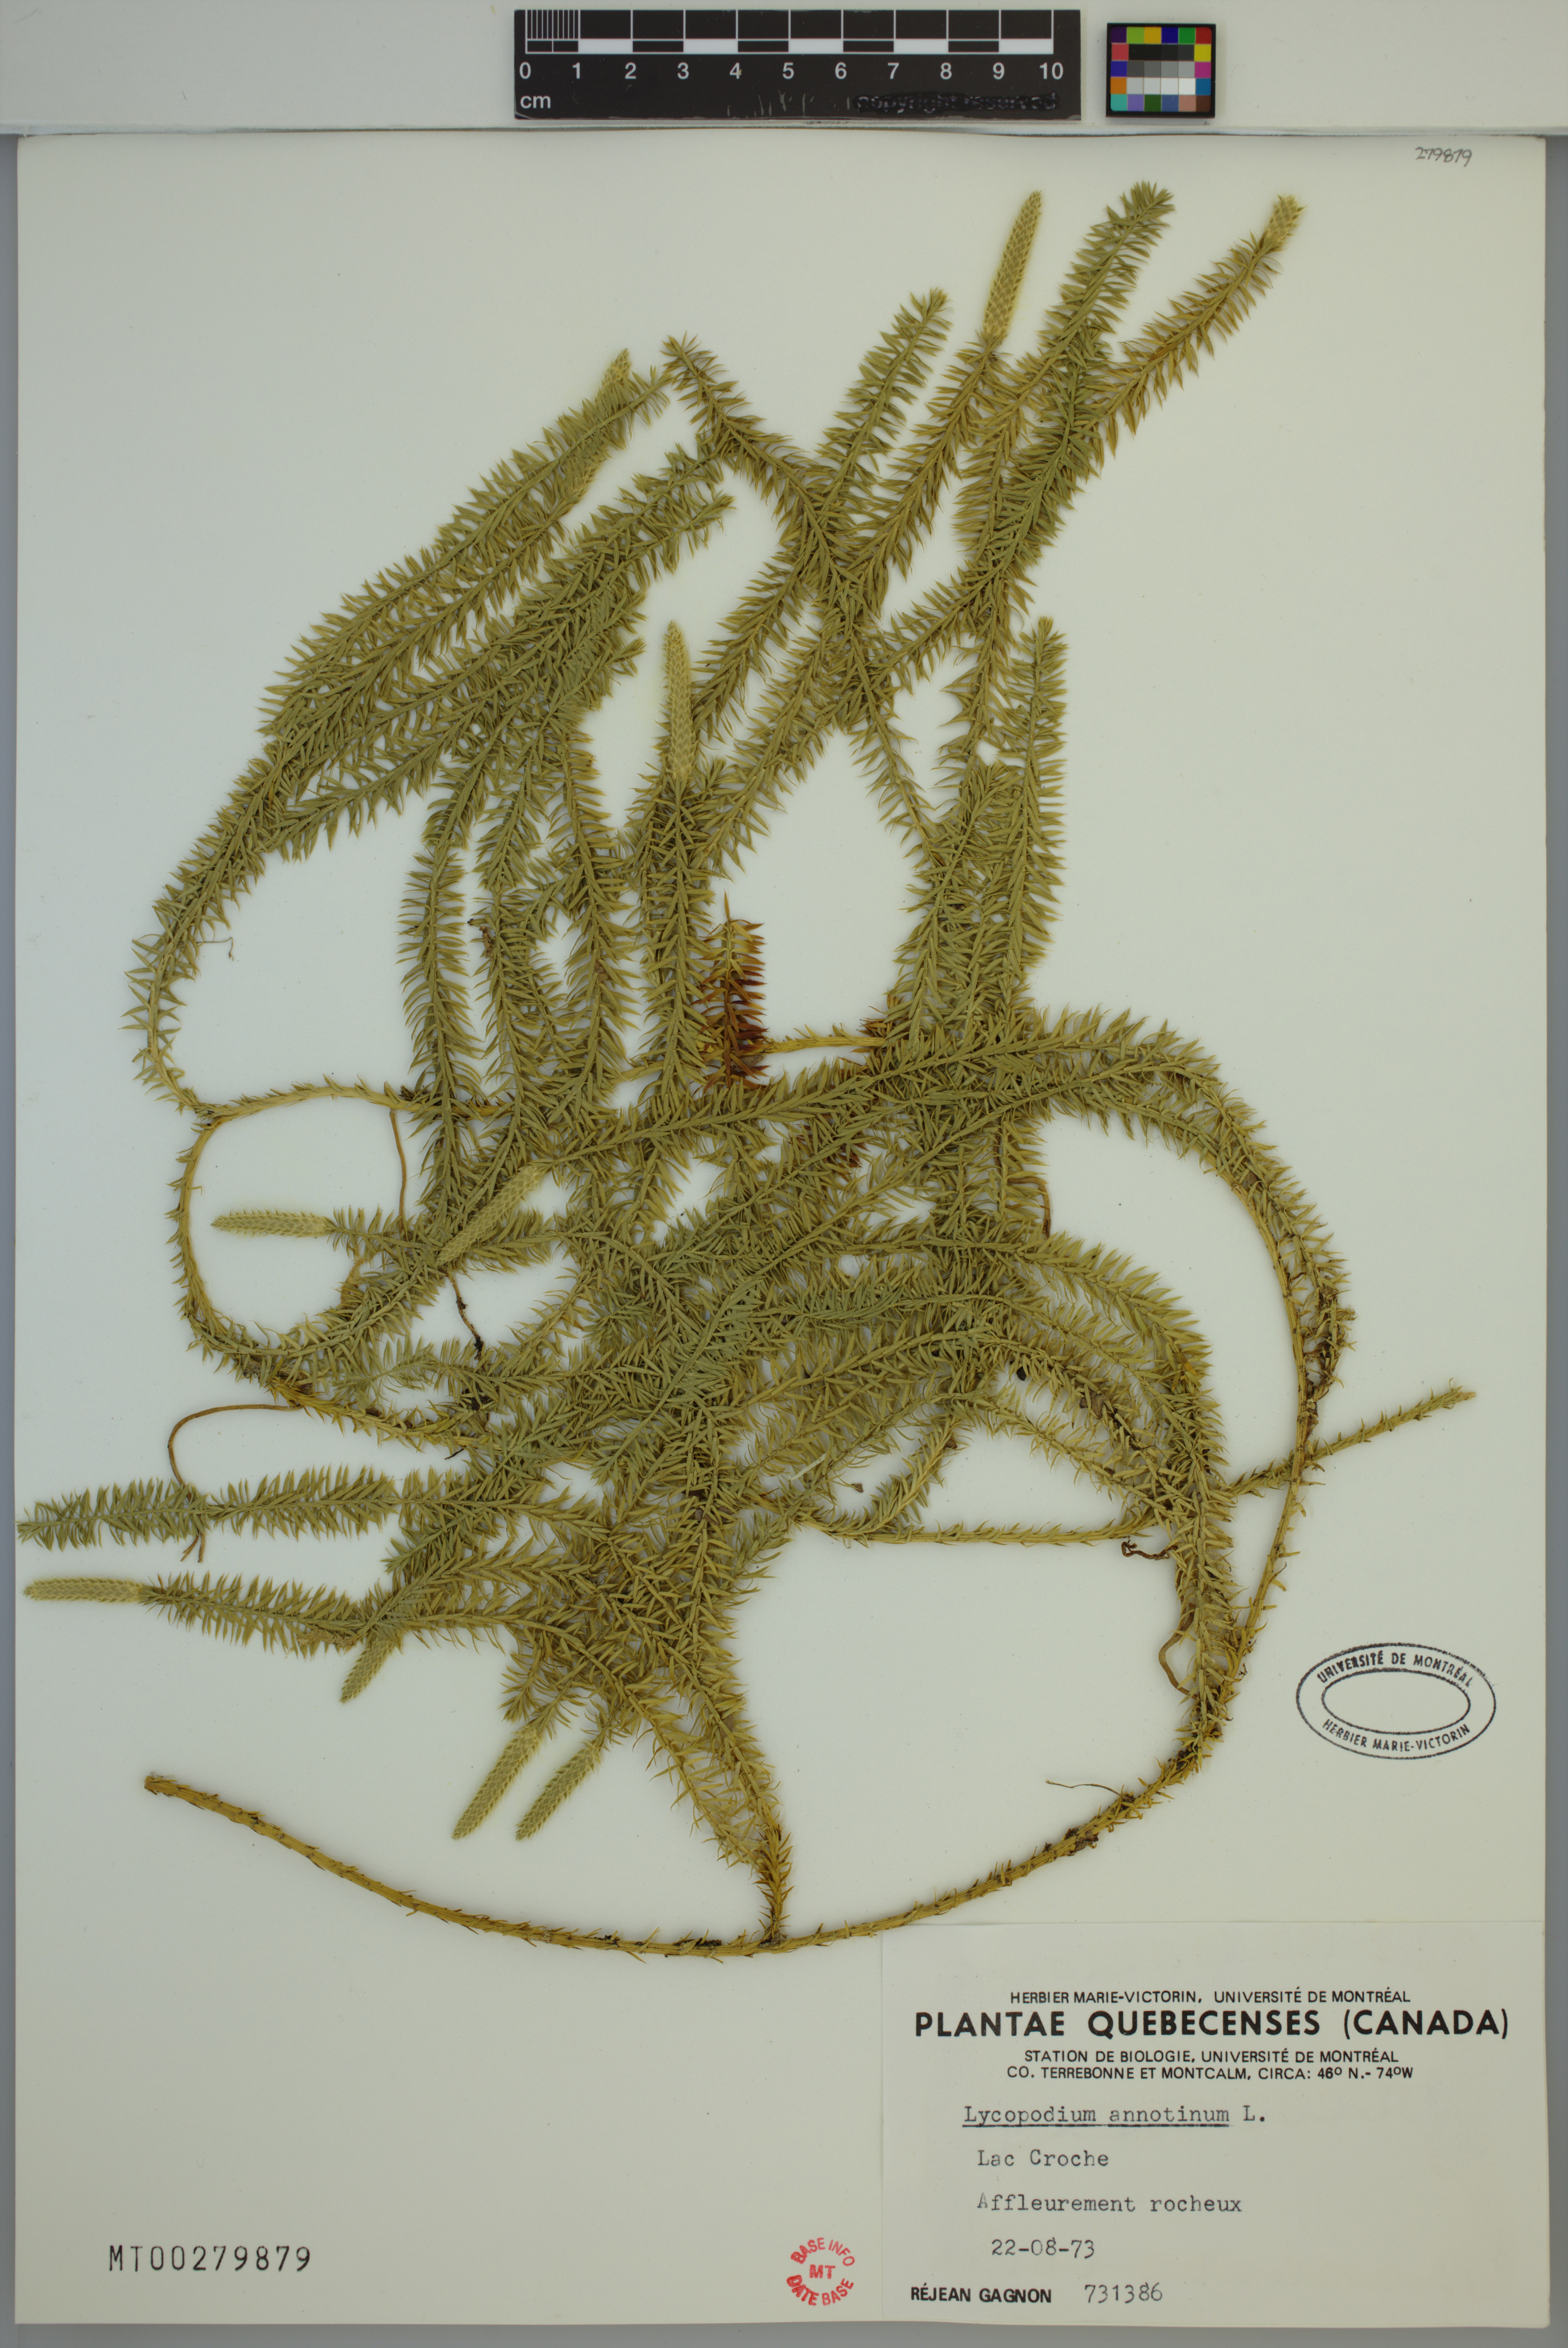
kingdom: Plantae
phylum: Tracheophyta
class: Lycopodiopsida
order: Lycopodiales
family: Lycopodiaceae
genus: Spinulum
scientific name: Spinulum annotinum
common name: Interrupted club-moss
